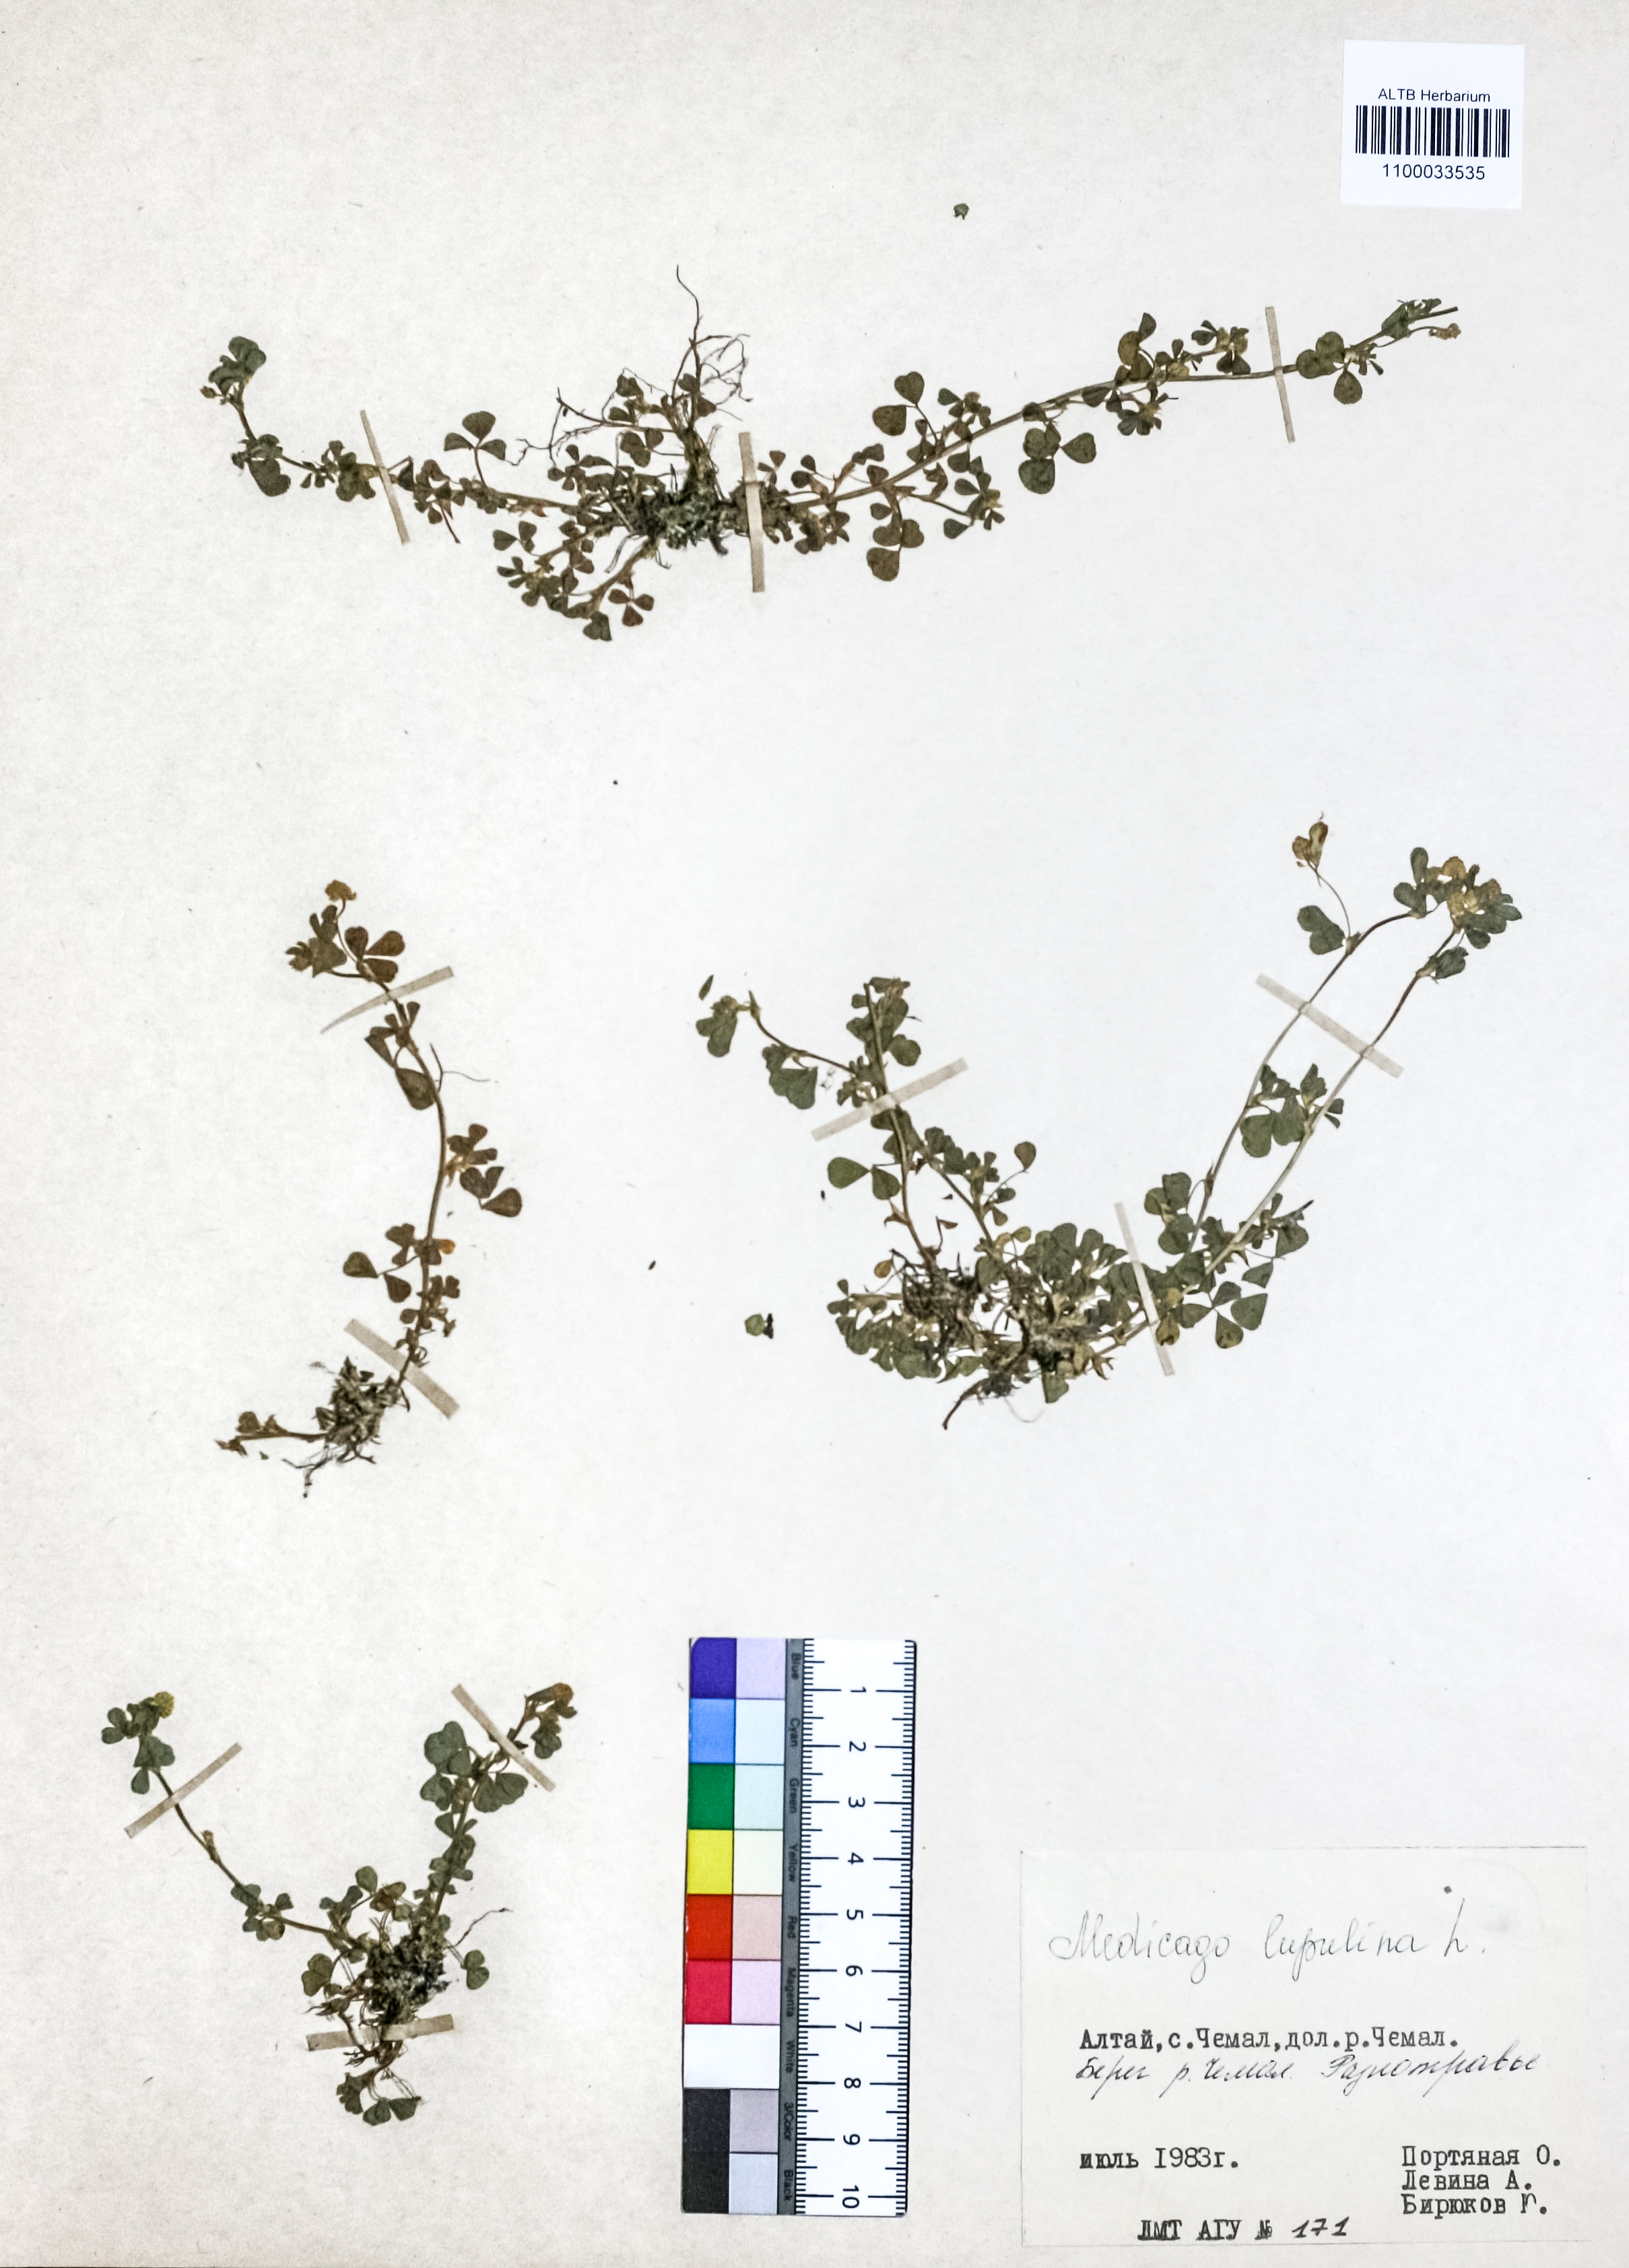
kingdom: Plantae
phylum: Tracheophyta
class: Magnoliopsida
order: Fabales
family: Fabaceae
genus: Medicago
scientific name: Medicago lupulina
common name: Black medick
